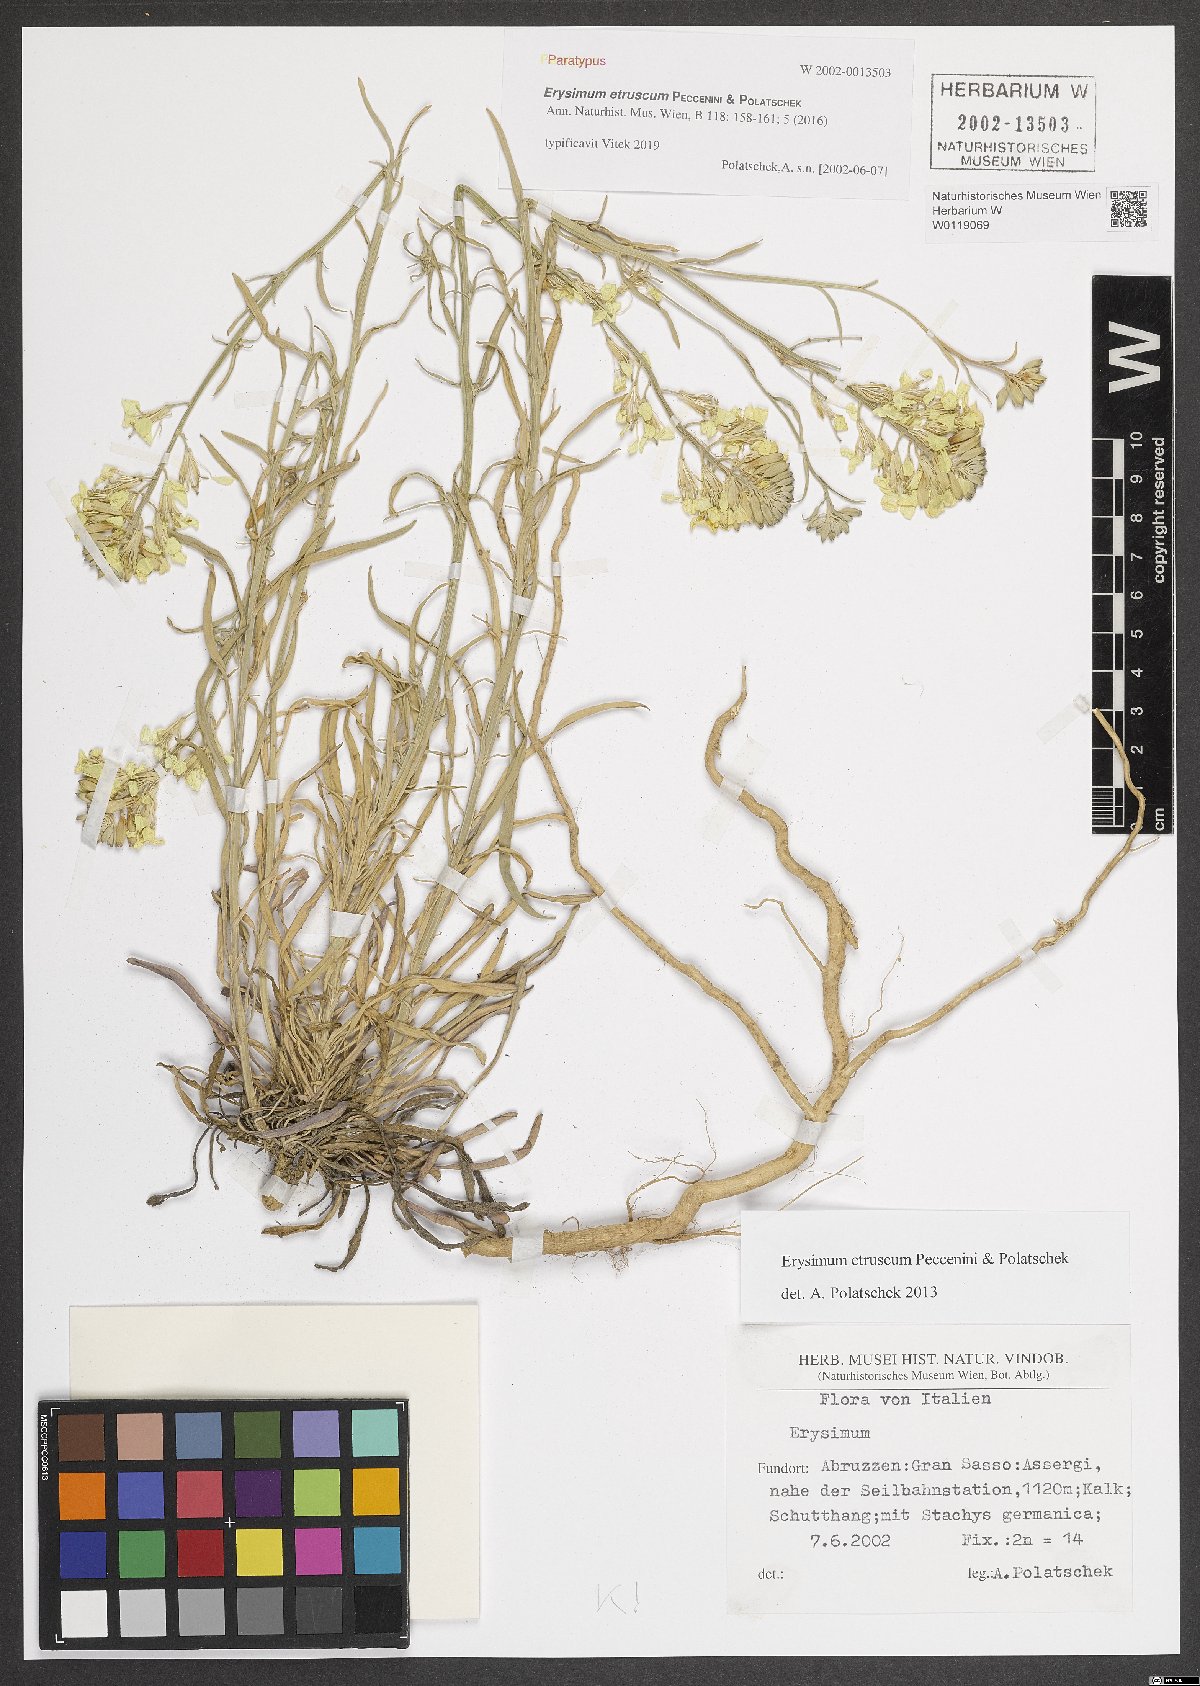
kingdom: Plantae
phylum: Tracheophyta
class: Magnoliopsida
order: Brassicales
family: Brassicaceae
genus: Erysimum
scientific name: Erysimum pseudorhaeticum
